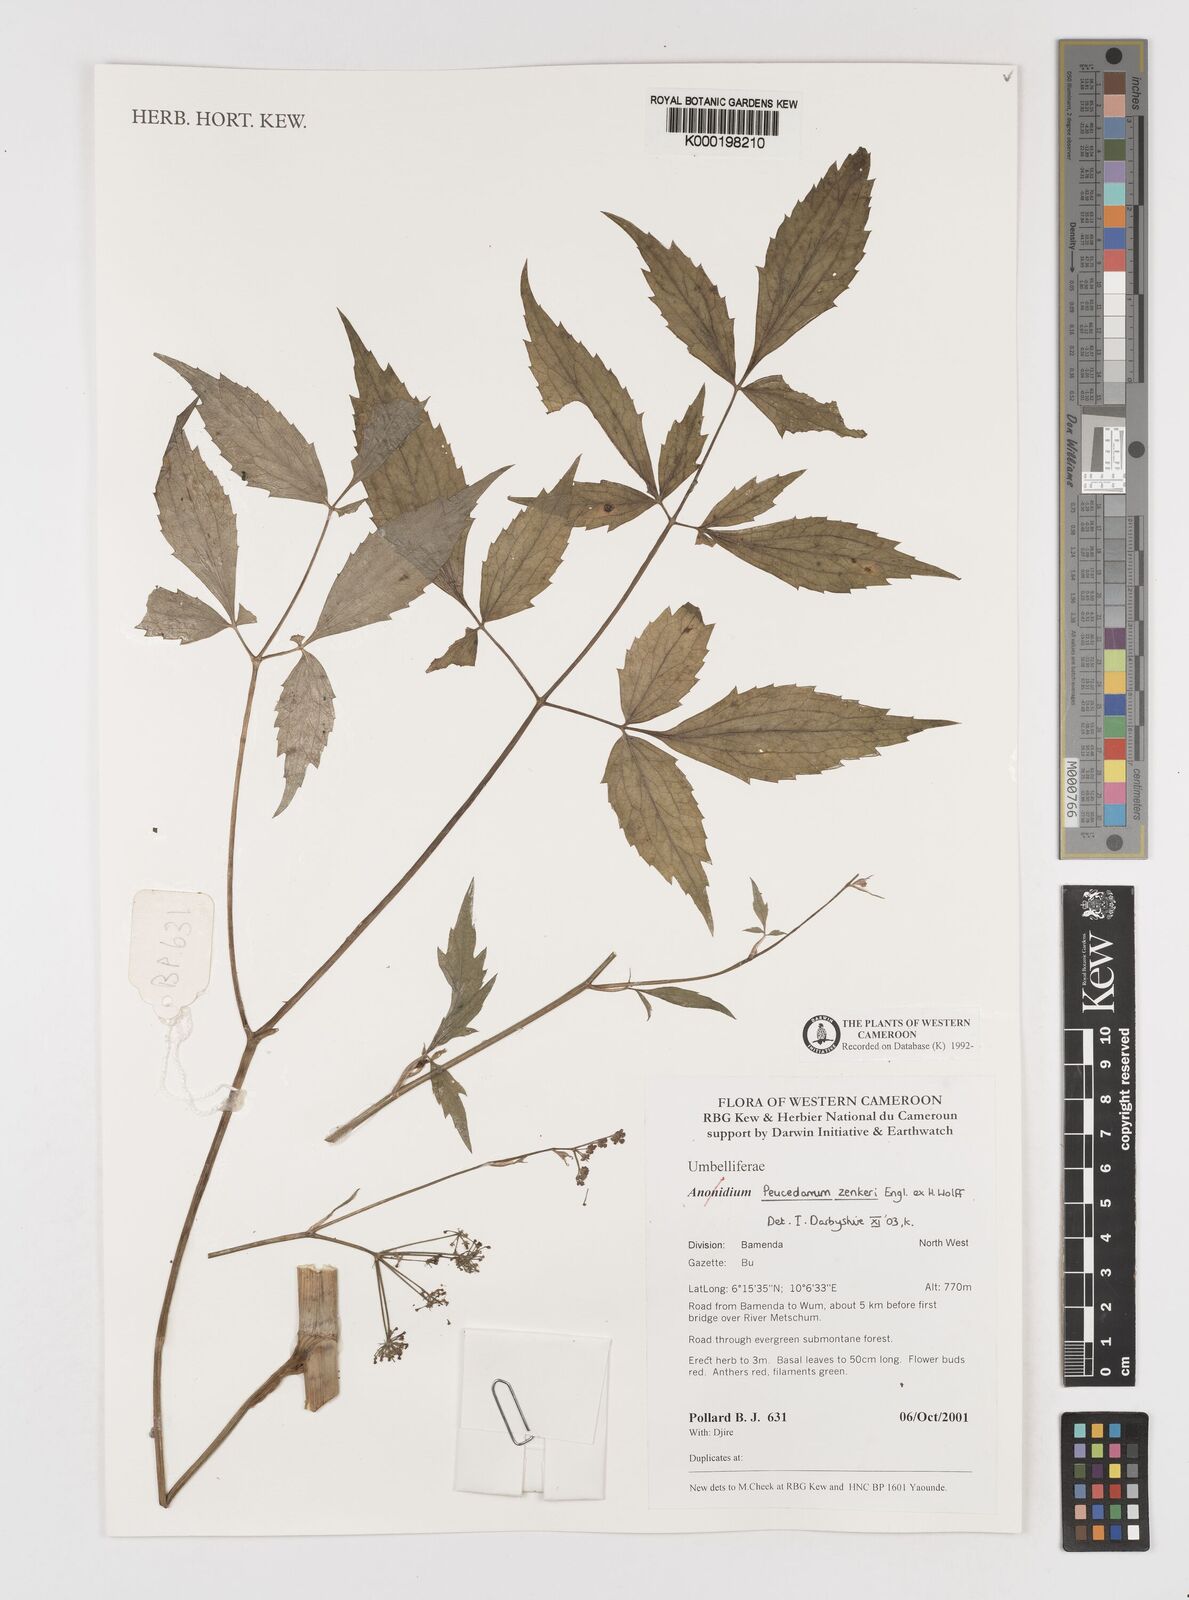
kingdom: Plantae
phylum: Tracheophyta
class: Magnoliopsida
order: Apiales
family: Apiaceae
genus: Peucedanum
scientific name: Peucedanum
